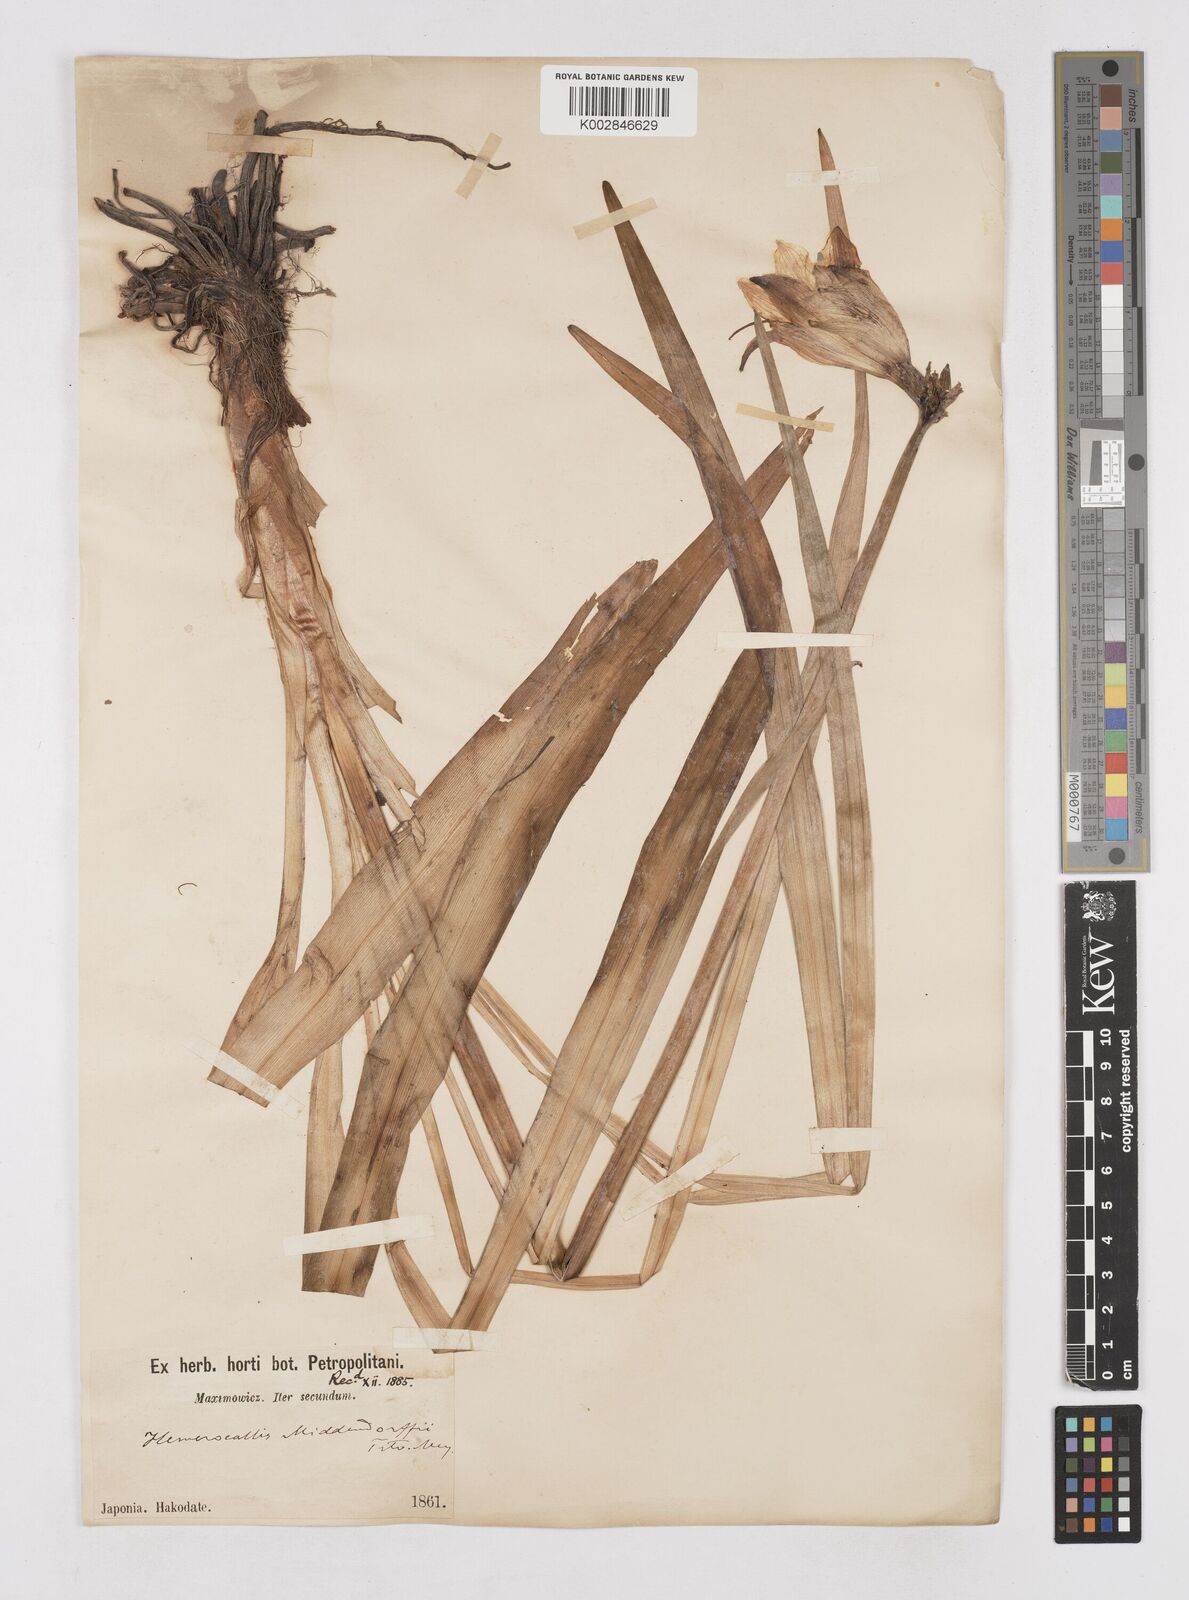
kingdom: Plantae
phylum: Tracheophyta
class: Liliopsida
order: Asparagales
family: Asphodelaceae
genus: Hemerocallis
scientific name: Hemerocallis middendorffii
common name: Amur day-lily
